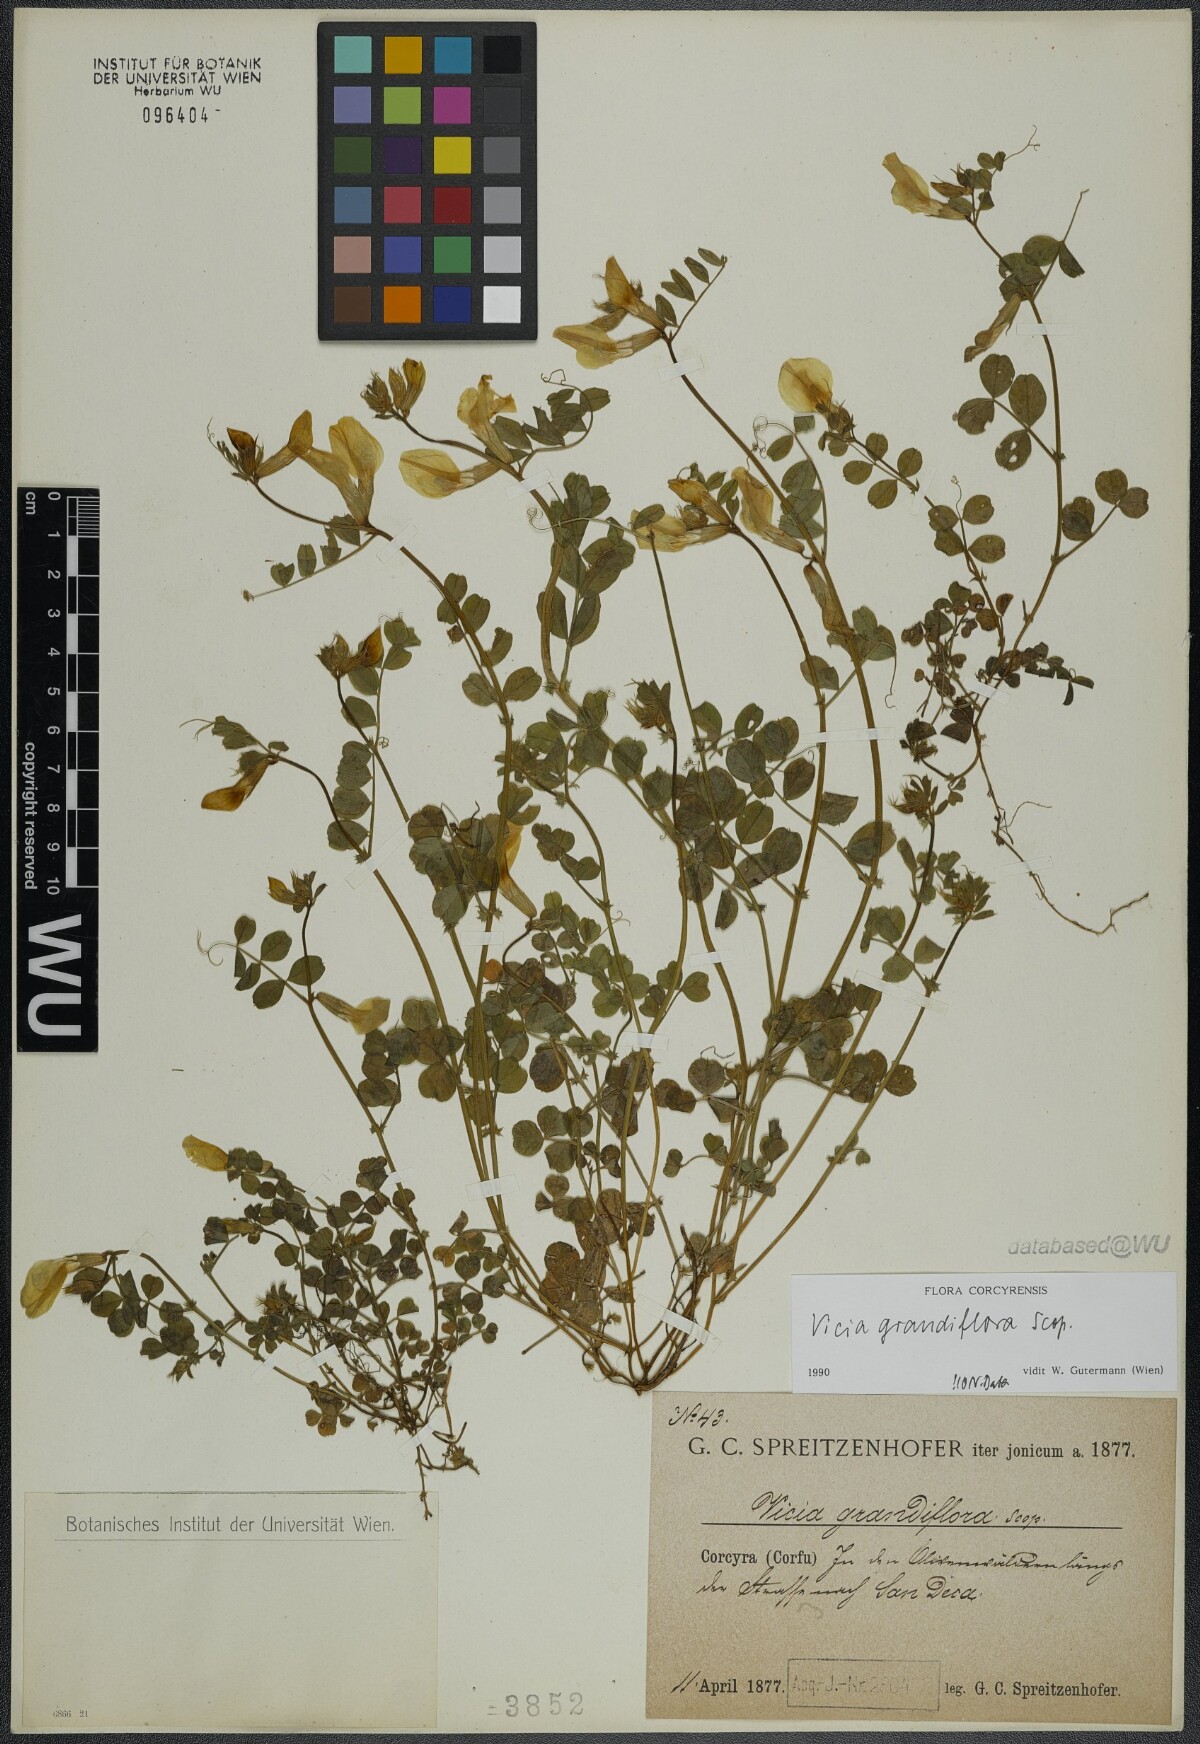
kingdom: Plantae
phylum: Tracheophyta
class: Magnoliopsida
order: Fabales
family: Fabaceae
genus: Vicia
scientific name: Vicia grandiflora
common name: Large yellow vetch
